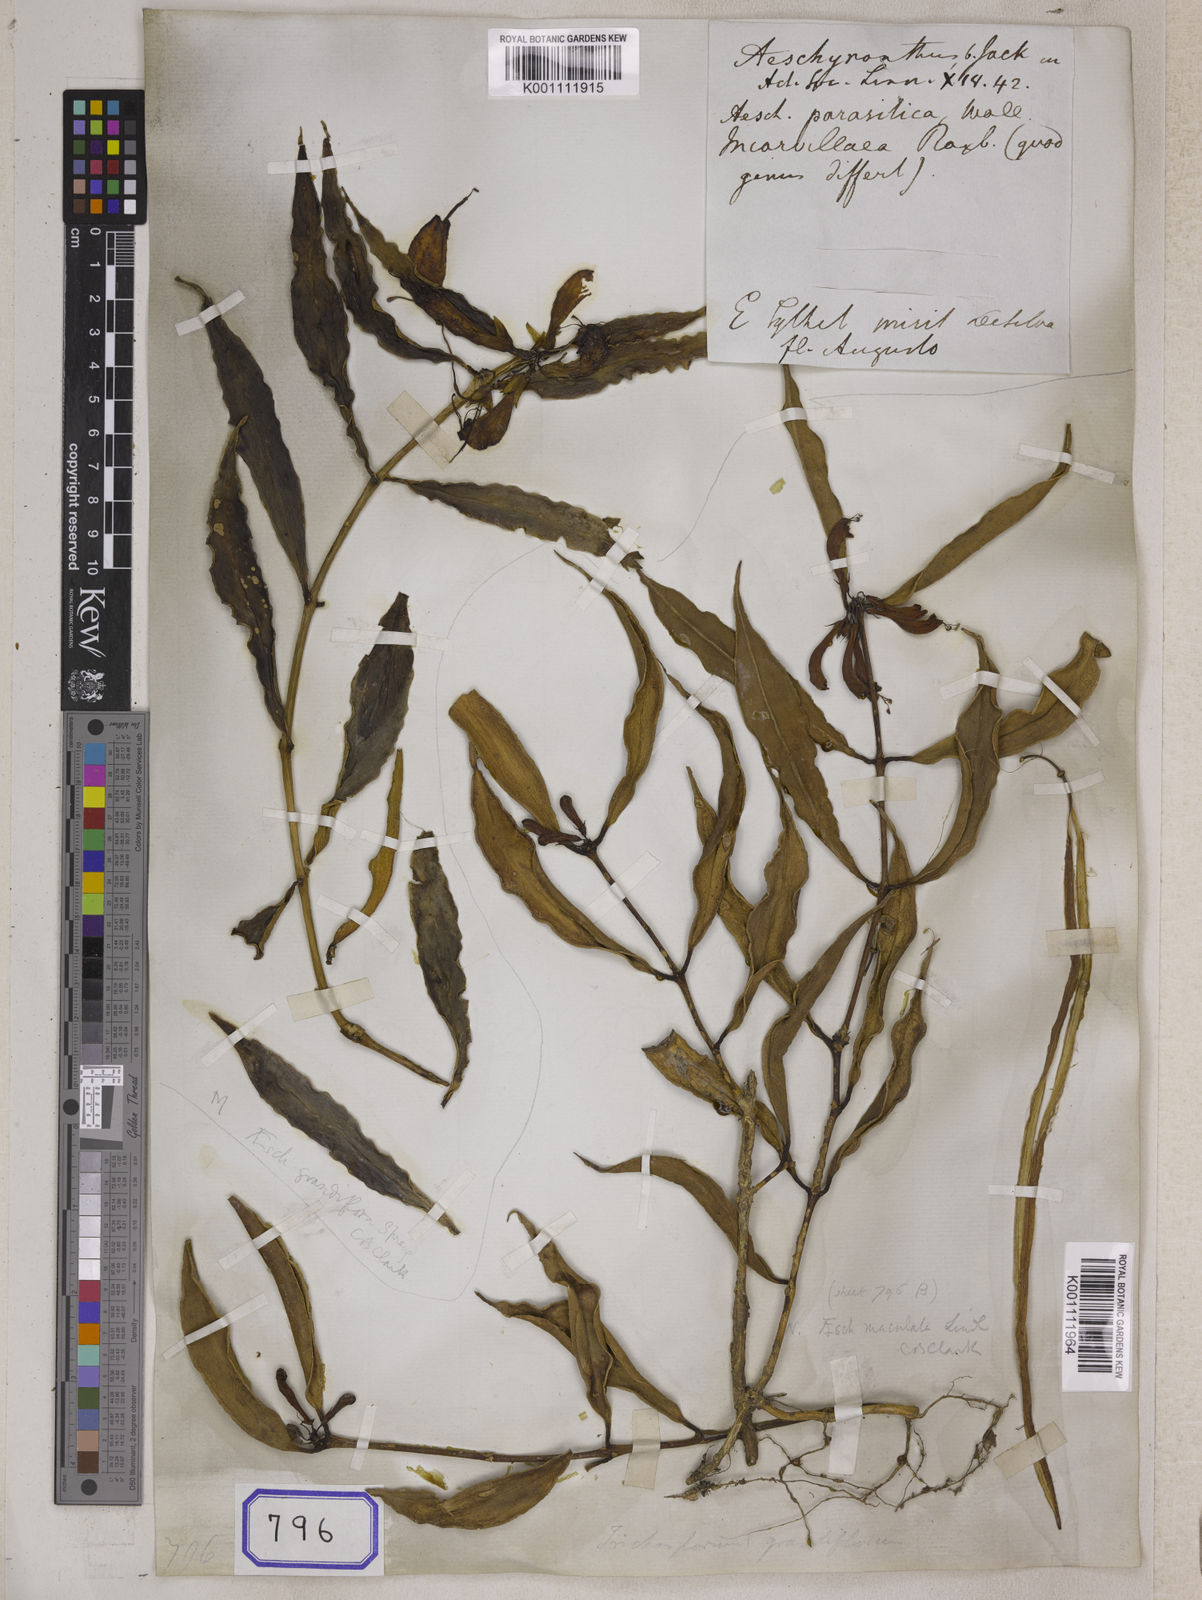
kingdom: Plantae
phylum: Tracheophyta
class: Magnoliopsida
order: Lamiales
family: Gesneriaceae
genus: Aeschynanthus
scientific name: Aeschynanthus parasiticus
